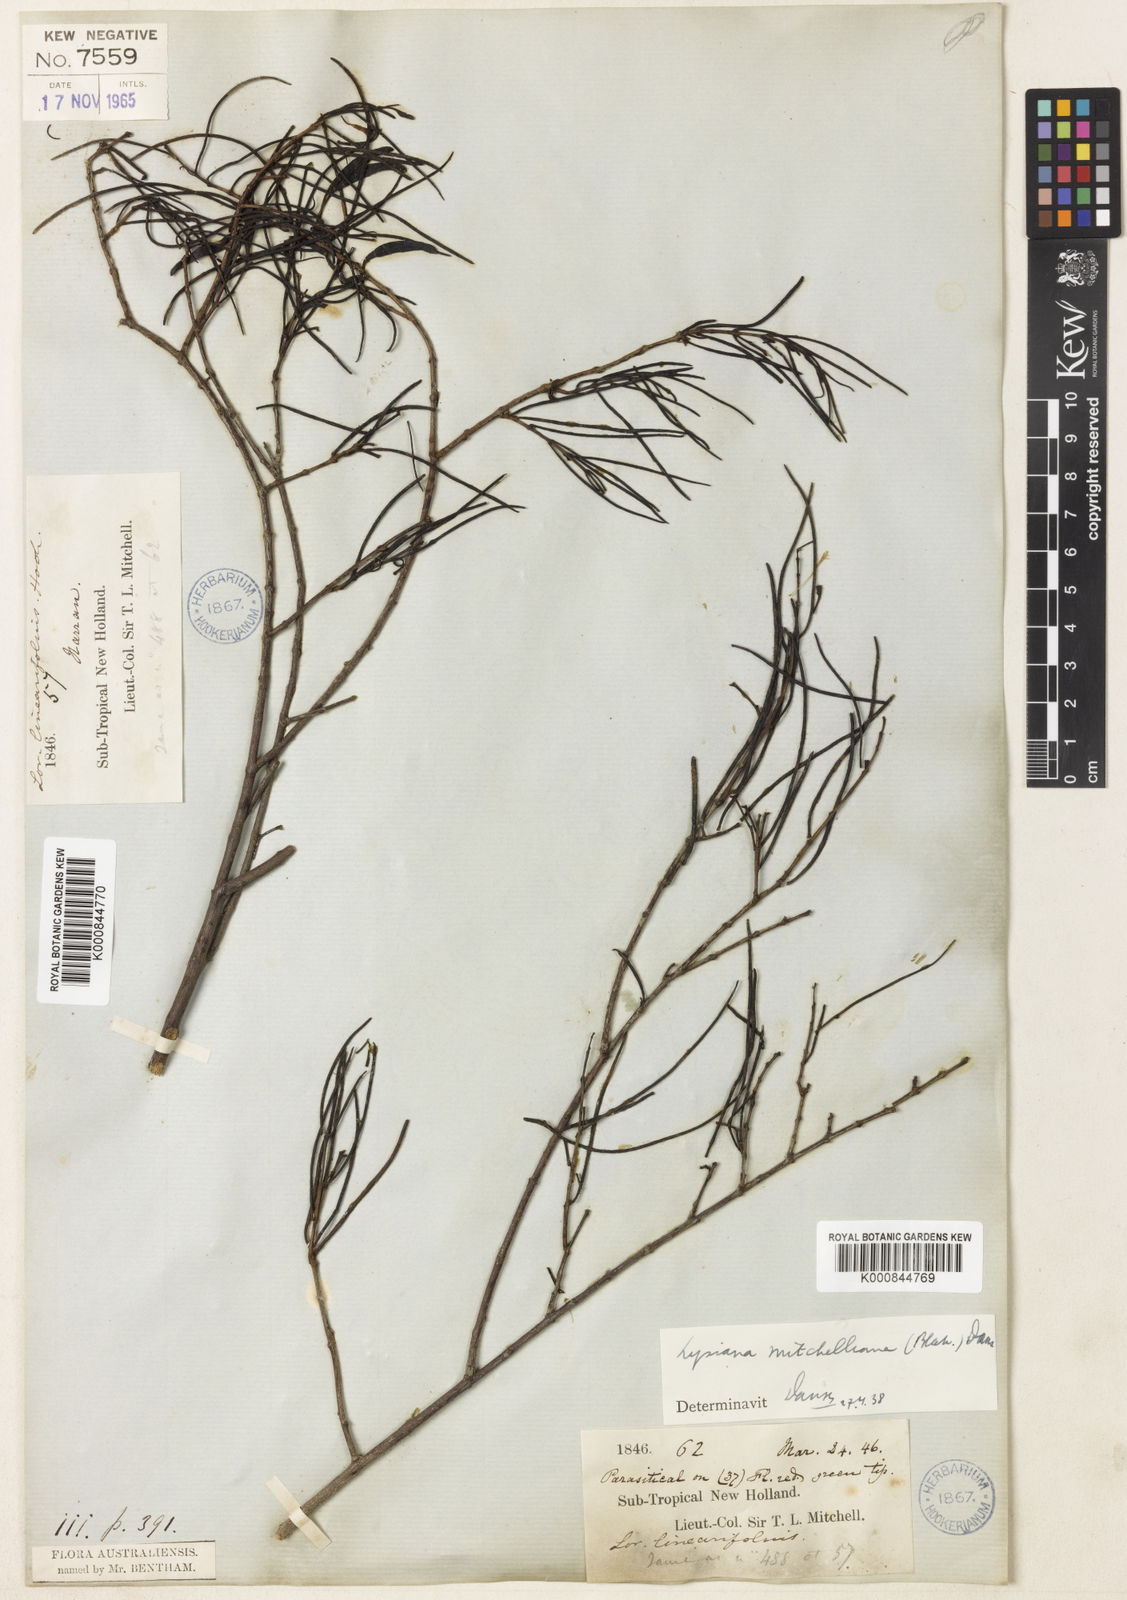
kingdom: Plantae
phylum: Tracheophyta
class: Magnoliopsida
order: Santalales
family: Loranthaceae
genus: Lysiana
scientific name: Lysiana linearifolia
